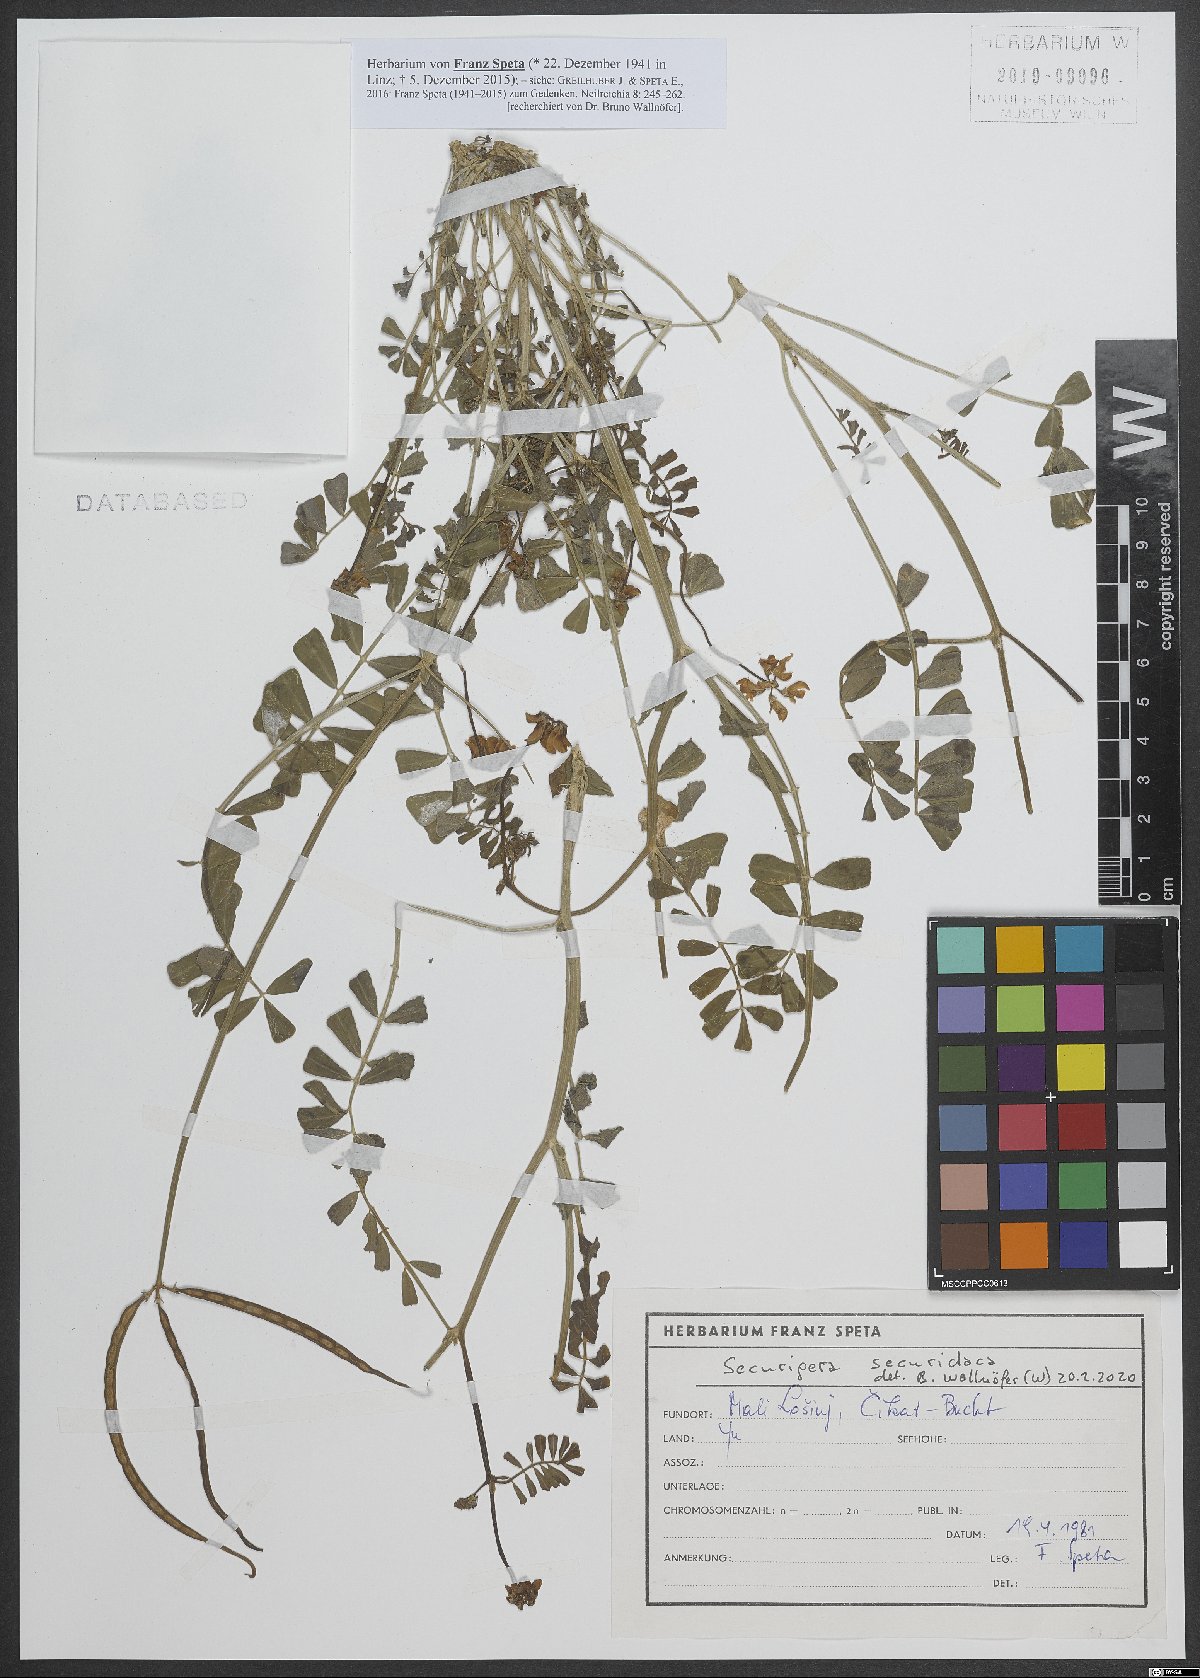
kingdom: Plantae
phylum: Tracheophyta
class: Magnoliopsida
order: Fabales
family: Fabaceae
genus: Coronilla
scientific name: Coronilla securidaca
